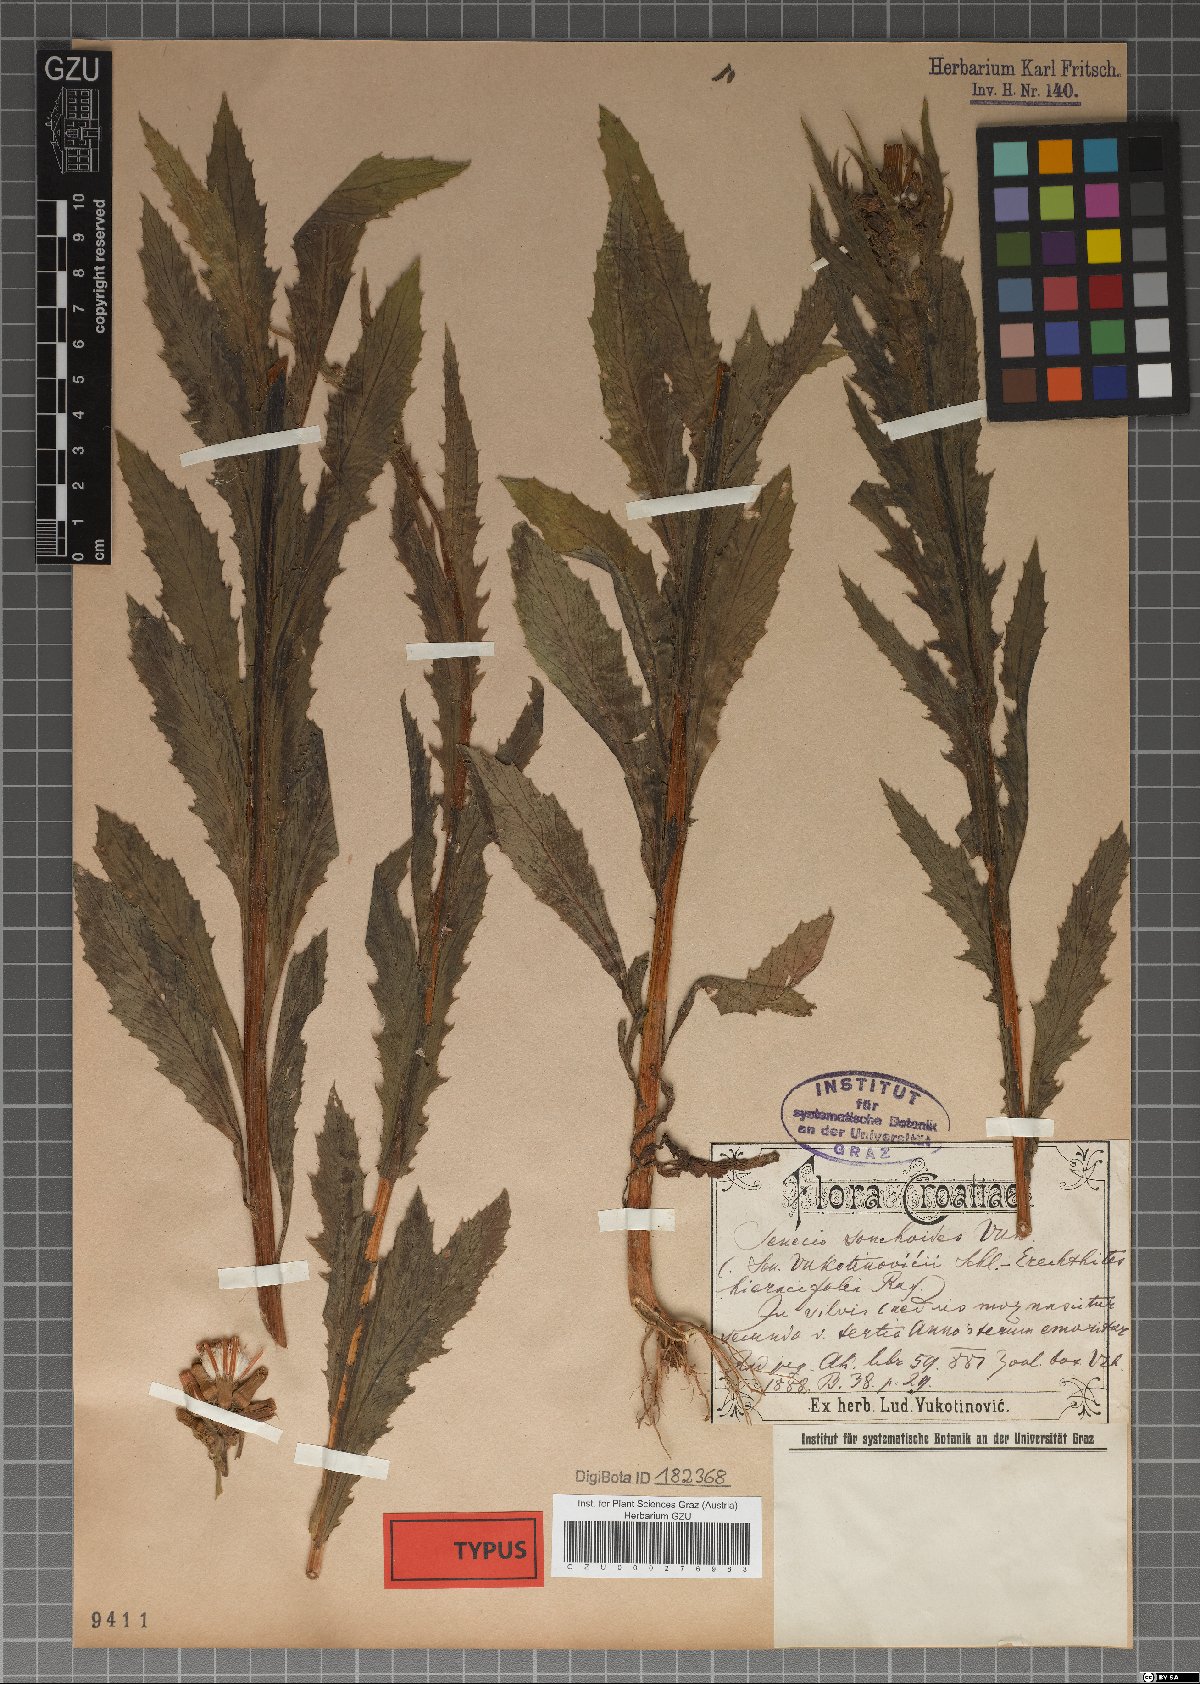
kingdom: Plantae
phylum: Tracheophyta
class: Magnoliopsida
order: Asterales
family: Asteraceae
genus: Senecio
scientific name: Senecio
